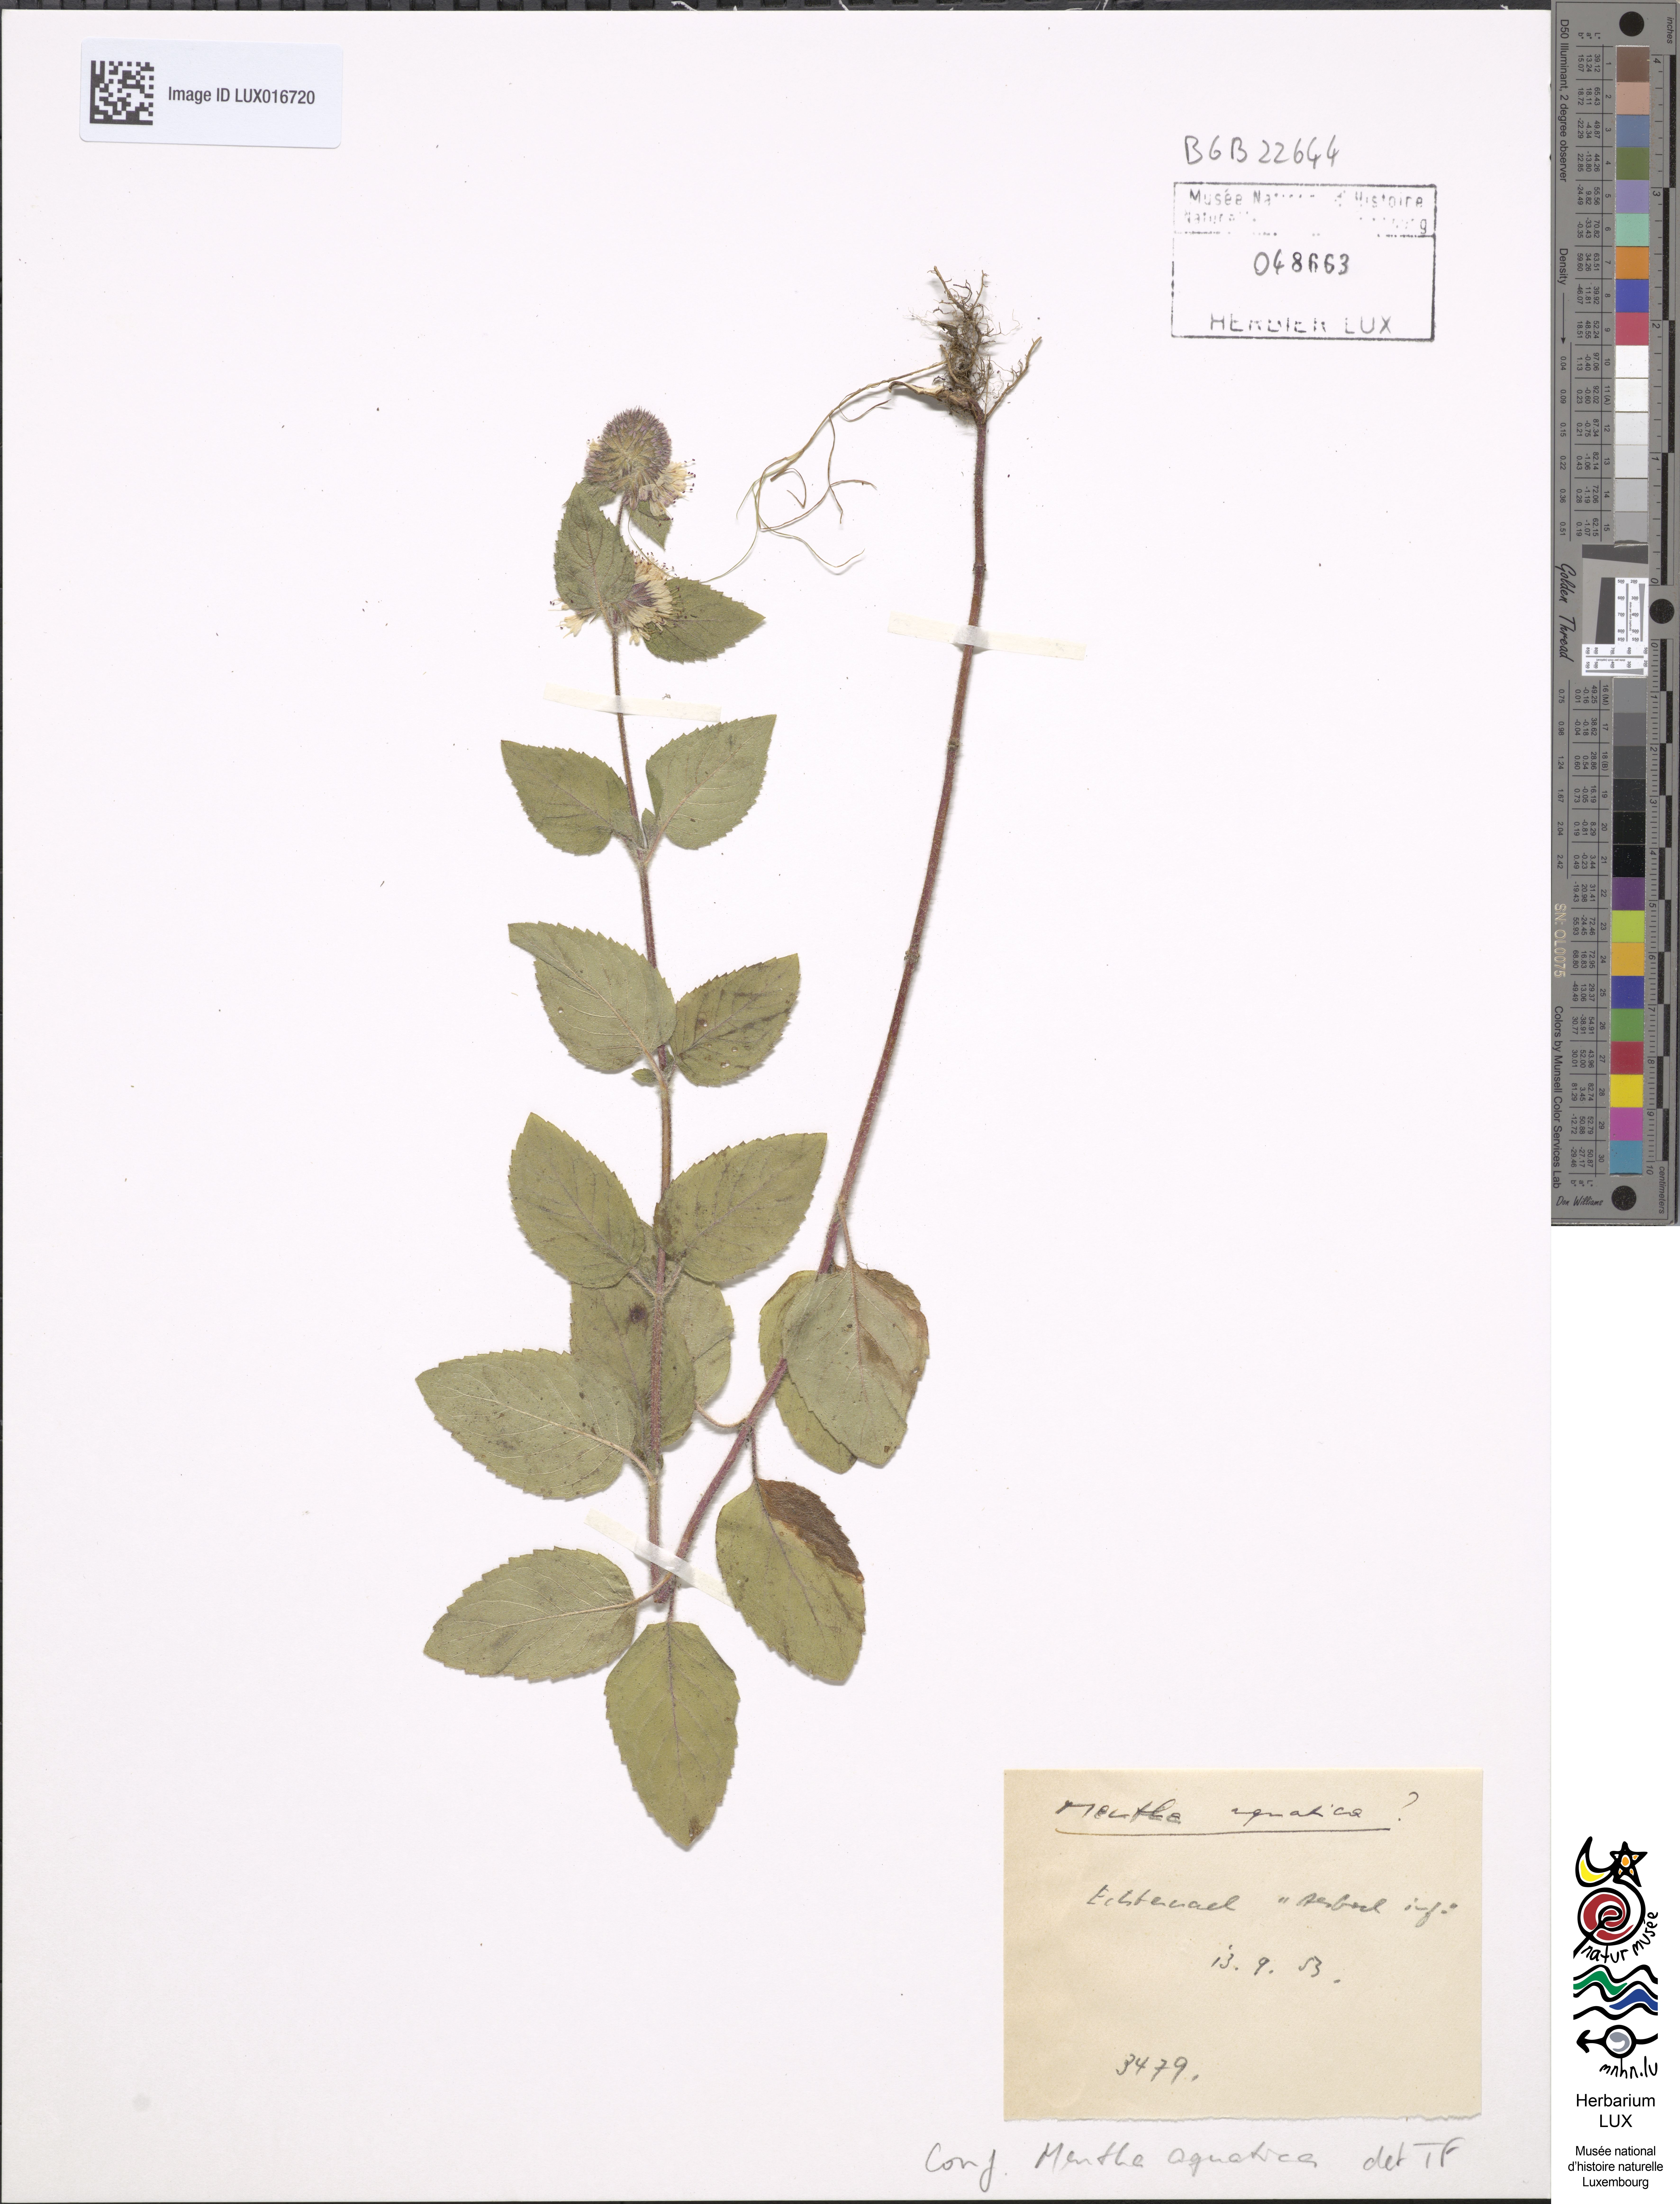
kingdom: Plantae
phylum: Tracheophyta
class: Magnoliopsida
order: Lamiales
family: Lamiaceae
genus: Mentha
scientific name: Mentha aquatica
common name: Water mint
